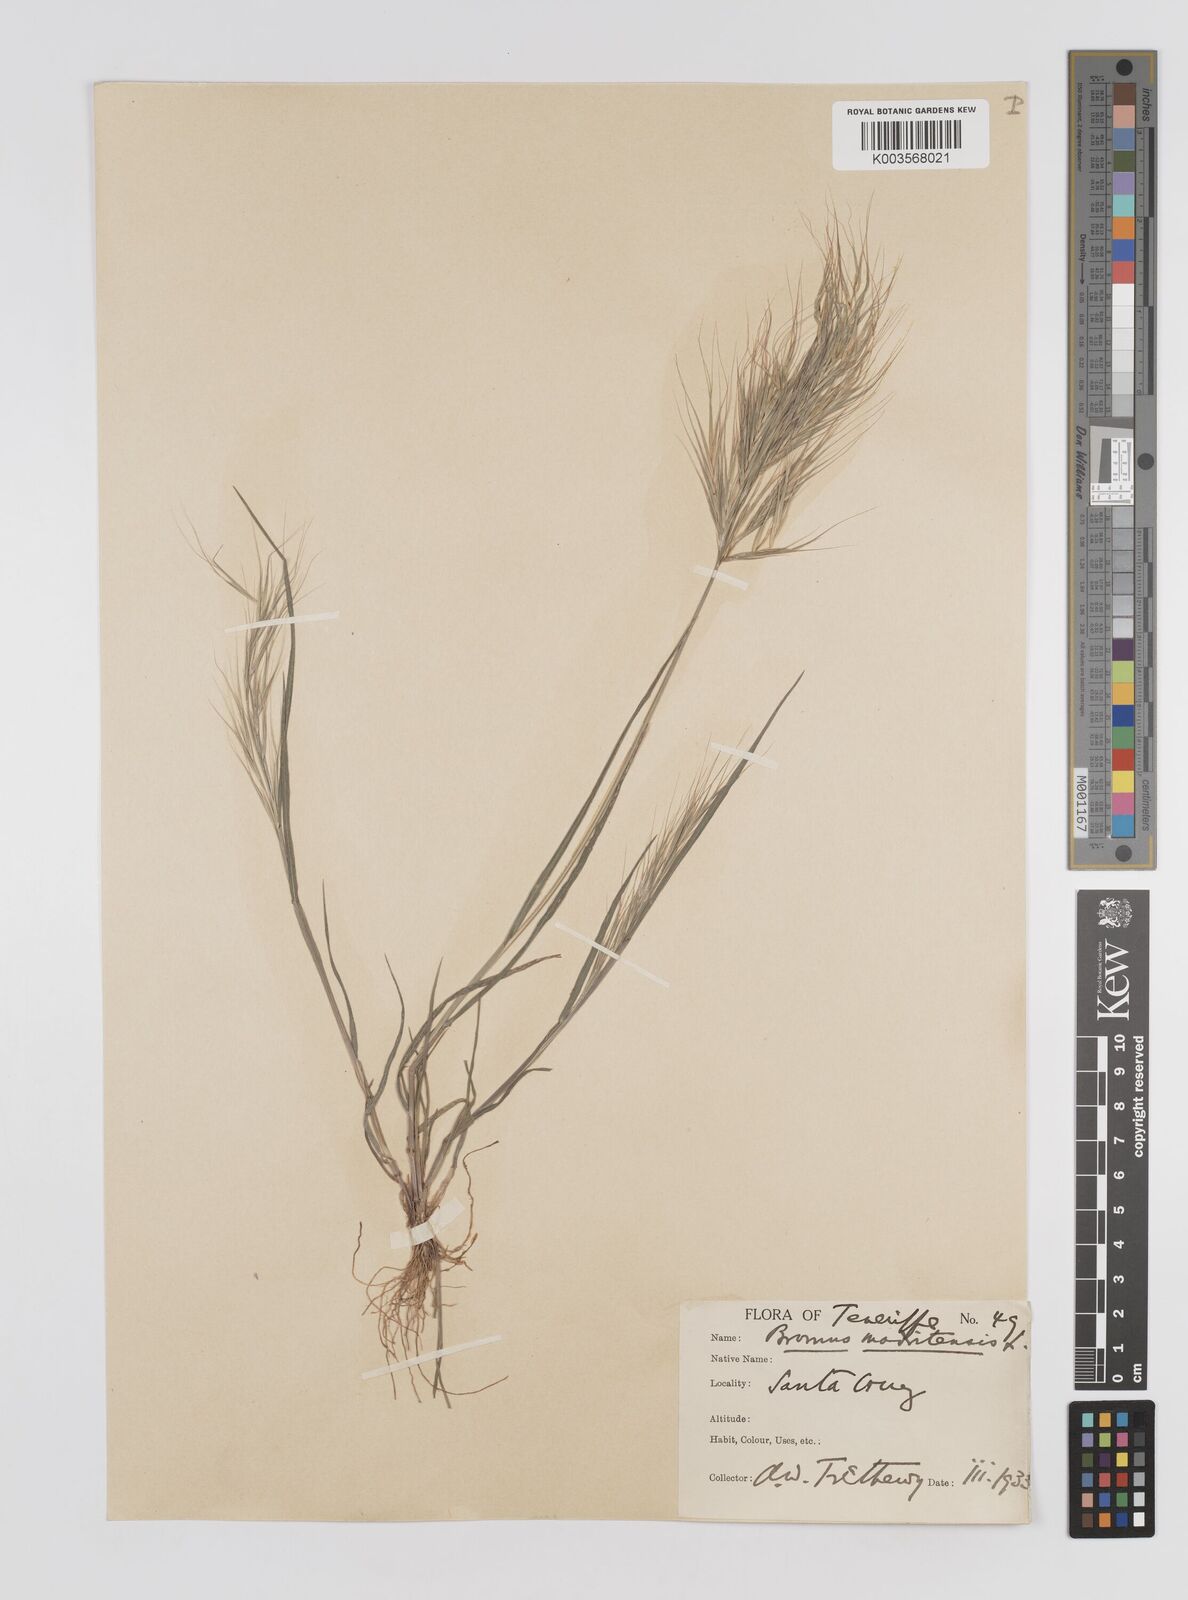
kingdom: Plantae
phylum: Tracheophyta
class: Liliopsida
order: Poales
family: Poaceae
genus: Bromus
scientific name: Bromus
